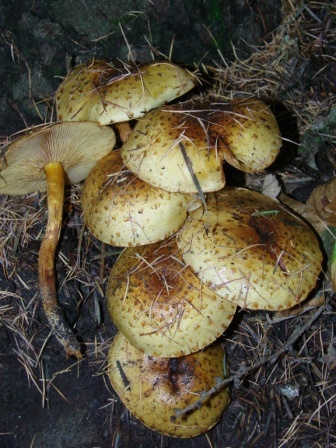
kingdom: Fungi
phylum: Basidiomycota
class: Agaricomycetes
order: Agaricales
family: Strophariaceae
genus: Pholiota
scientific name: Pholiota jahnii
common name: slimet skælhat
